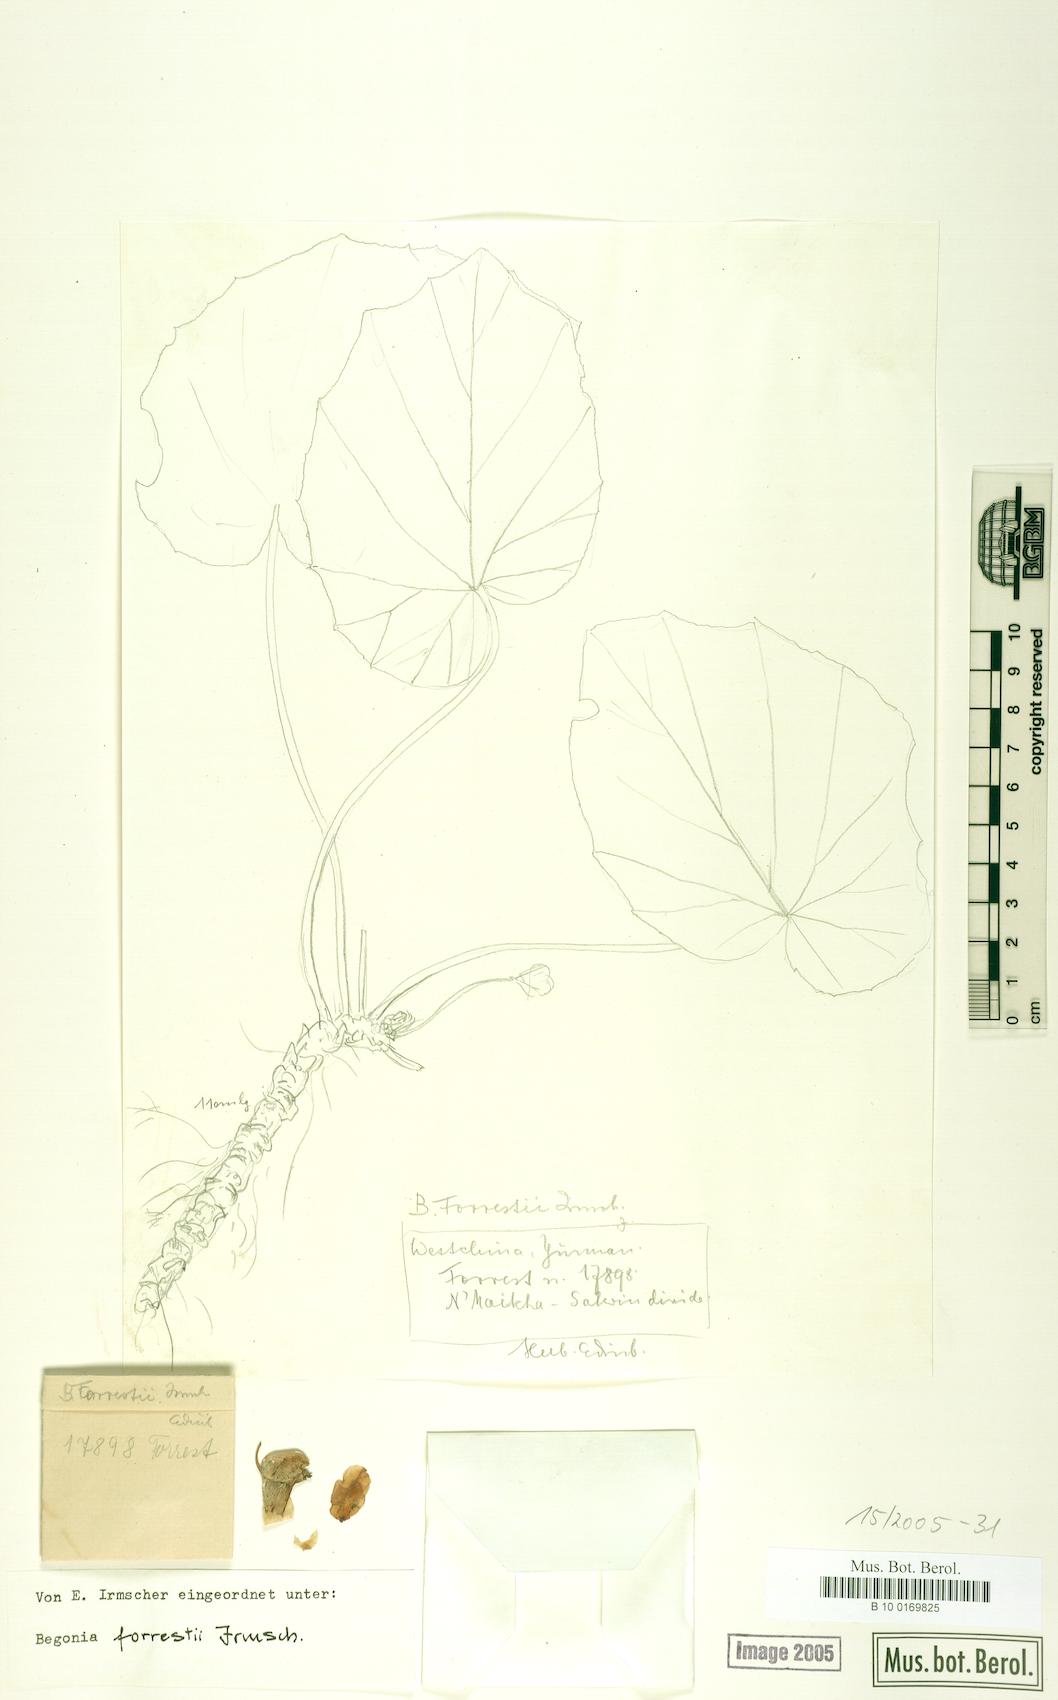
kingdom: Plantae
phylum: Tracheophyta
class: Magnoliopsida
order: Cucurbitales
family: Begoniaceae
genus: Begonia
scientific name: Begonia forrestii
